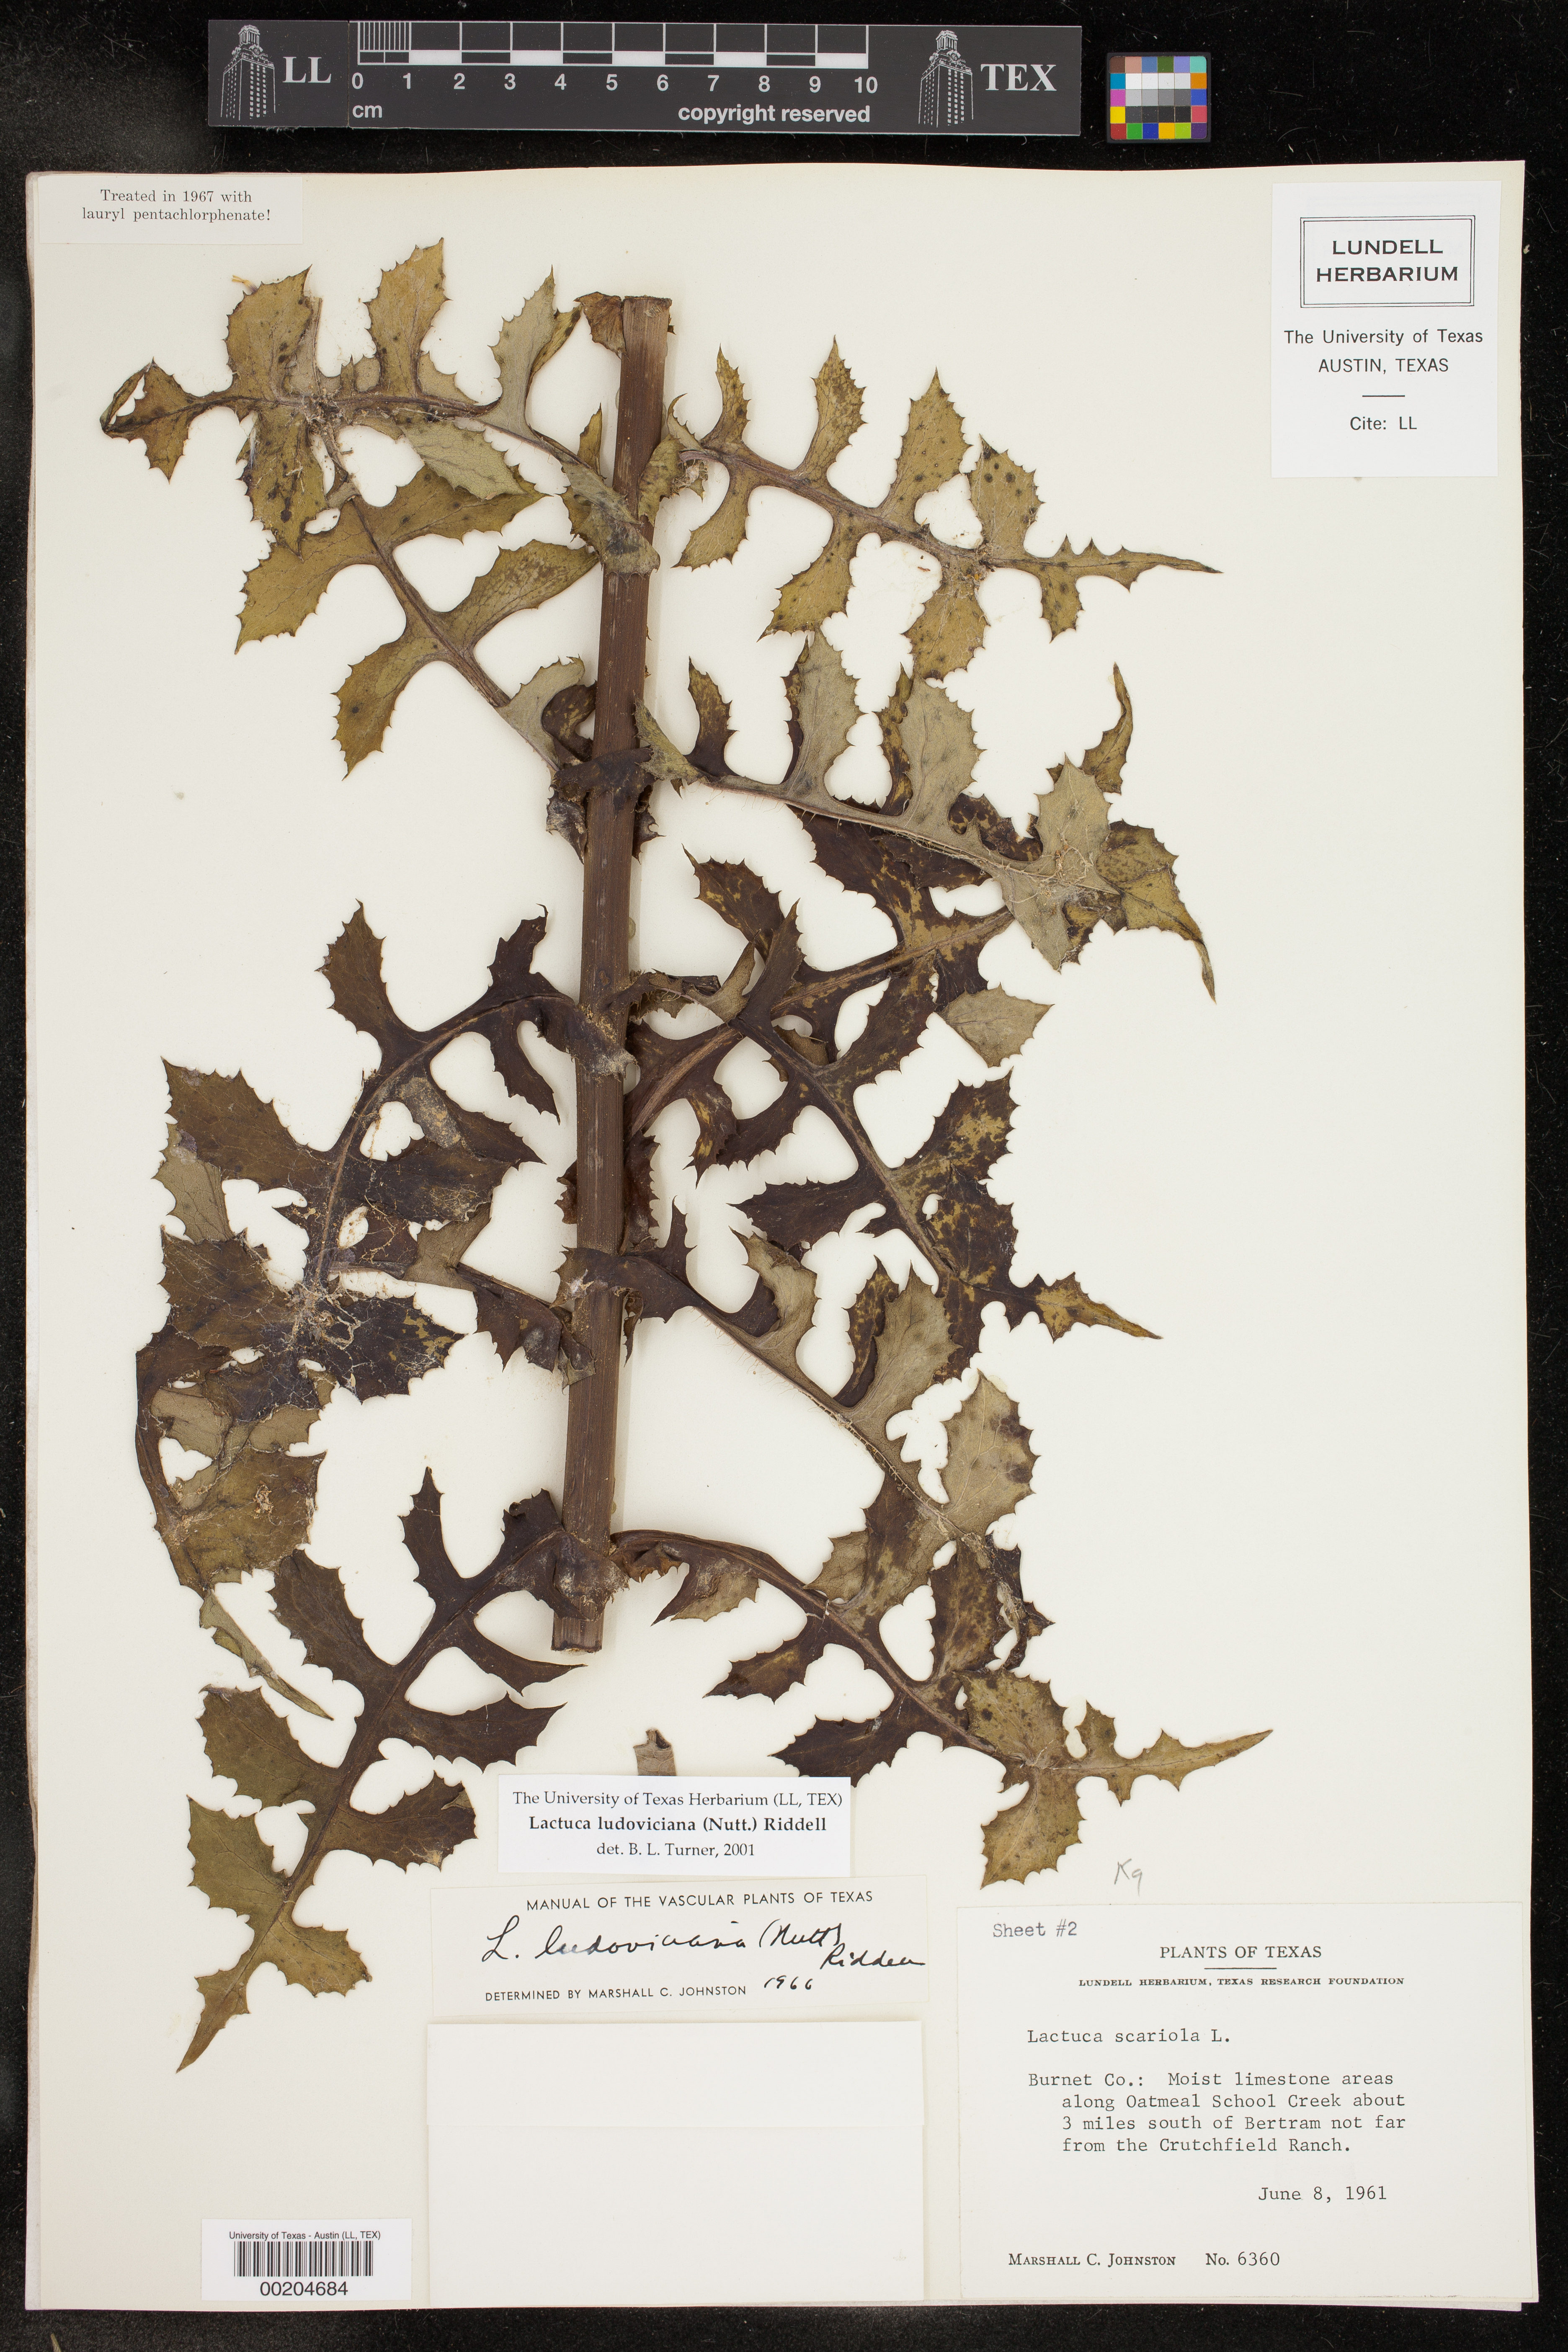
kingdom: Plantae
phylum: Tracheophyta
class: Magnoliopsida
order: Asterales
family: Asteraceae
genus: Lactuca
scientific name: Lactuca ludoviciana
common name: Louisiana lettuce
